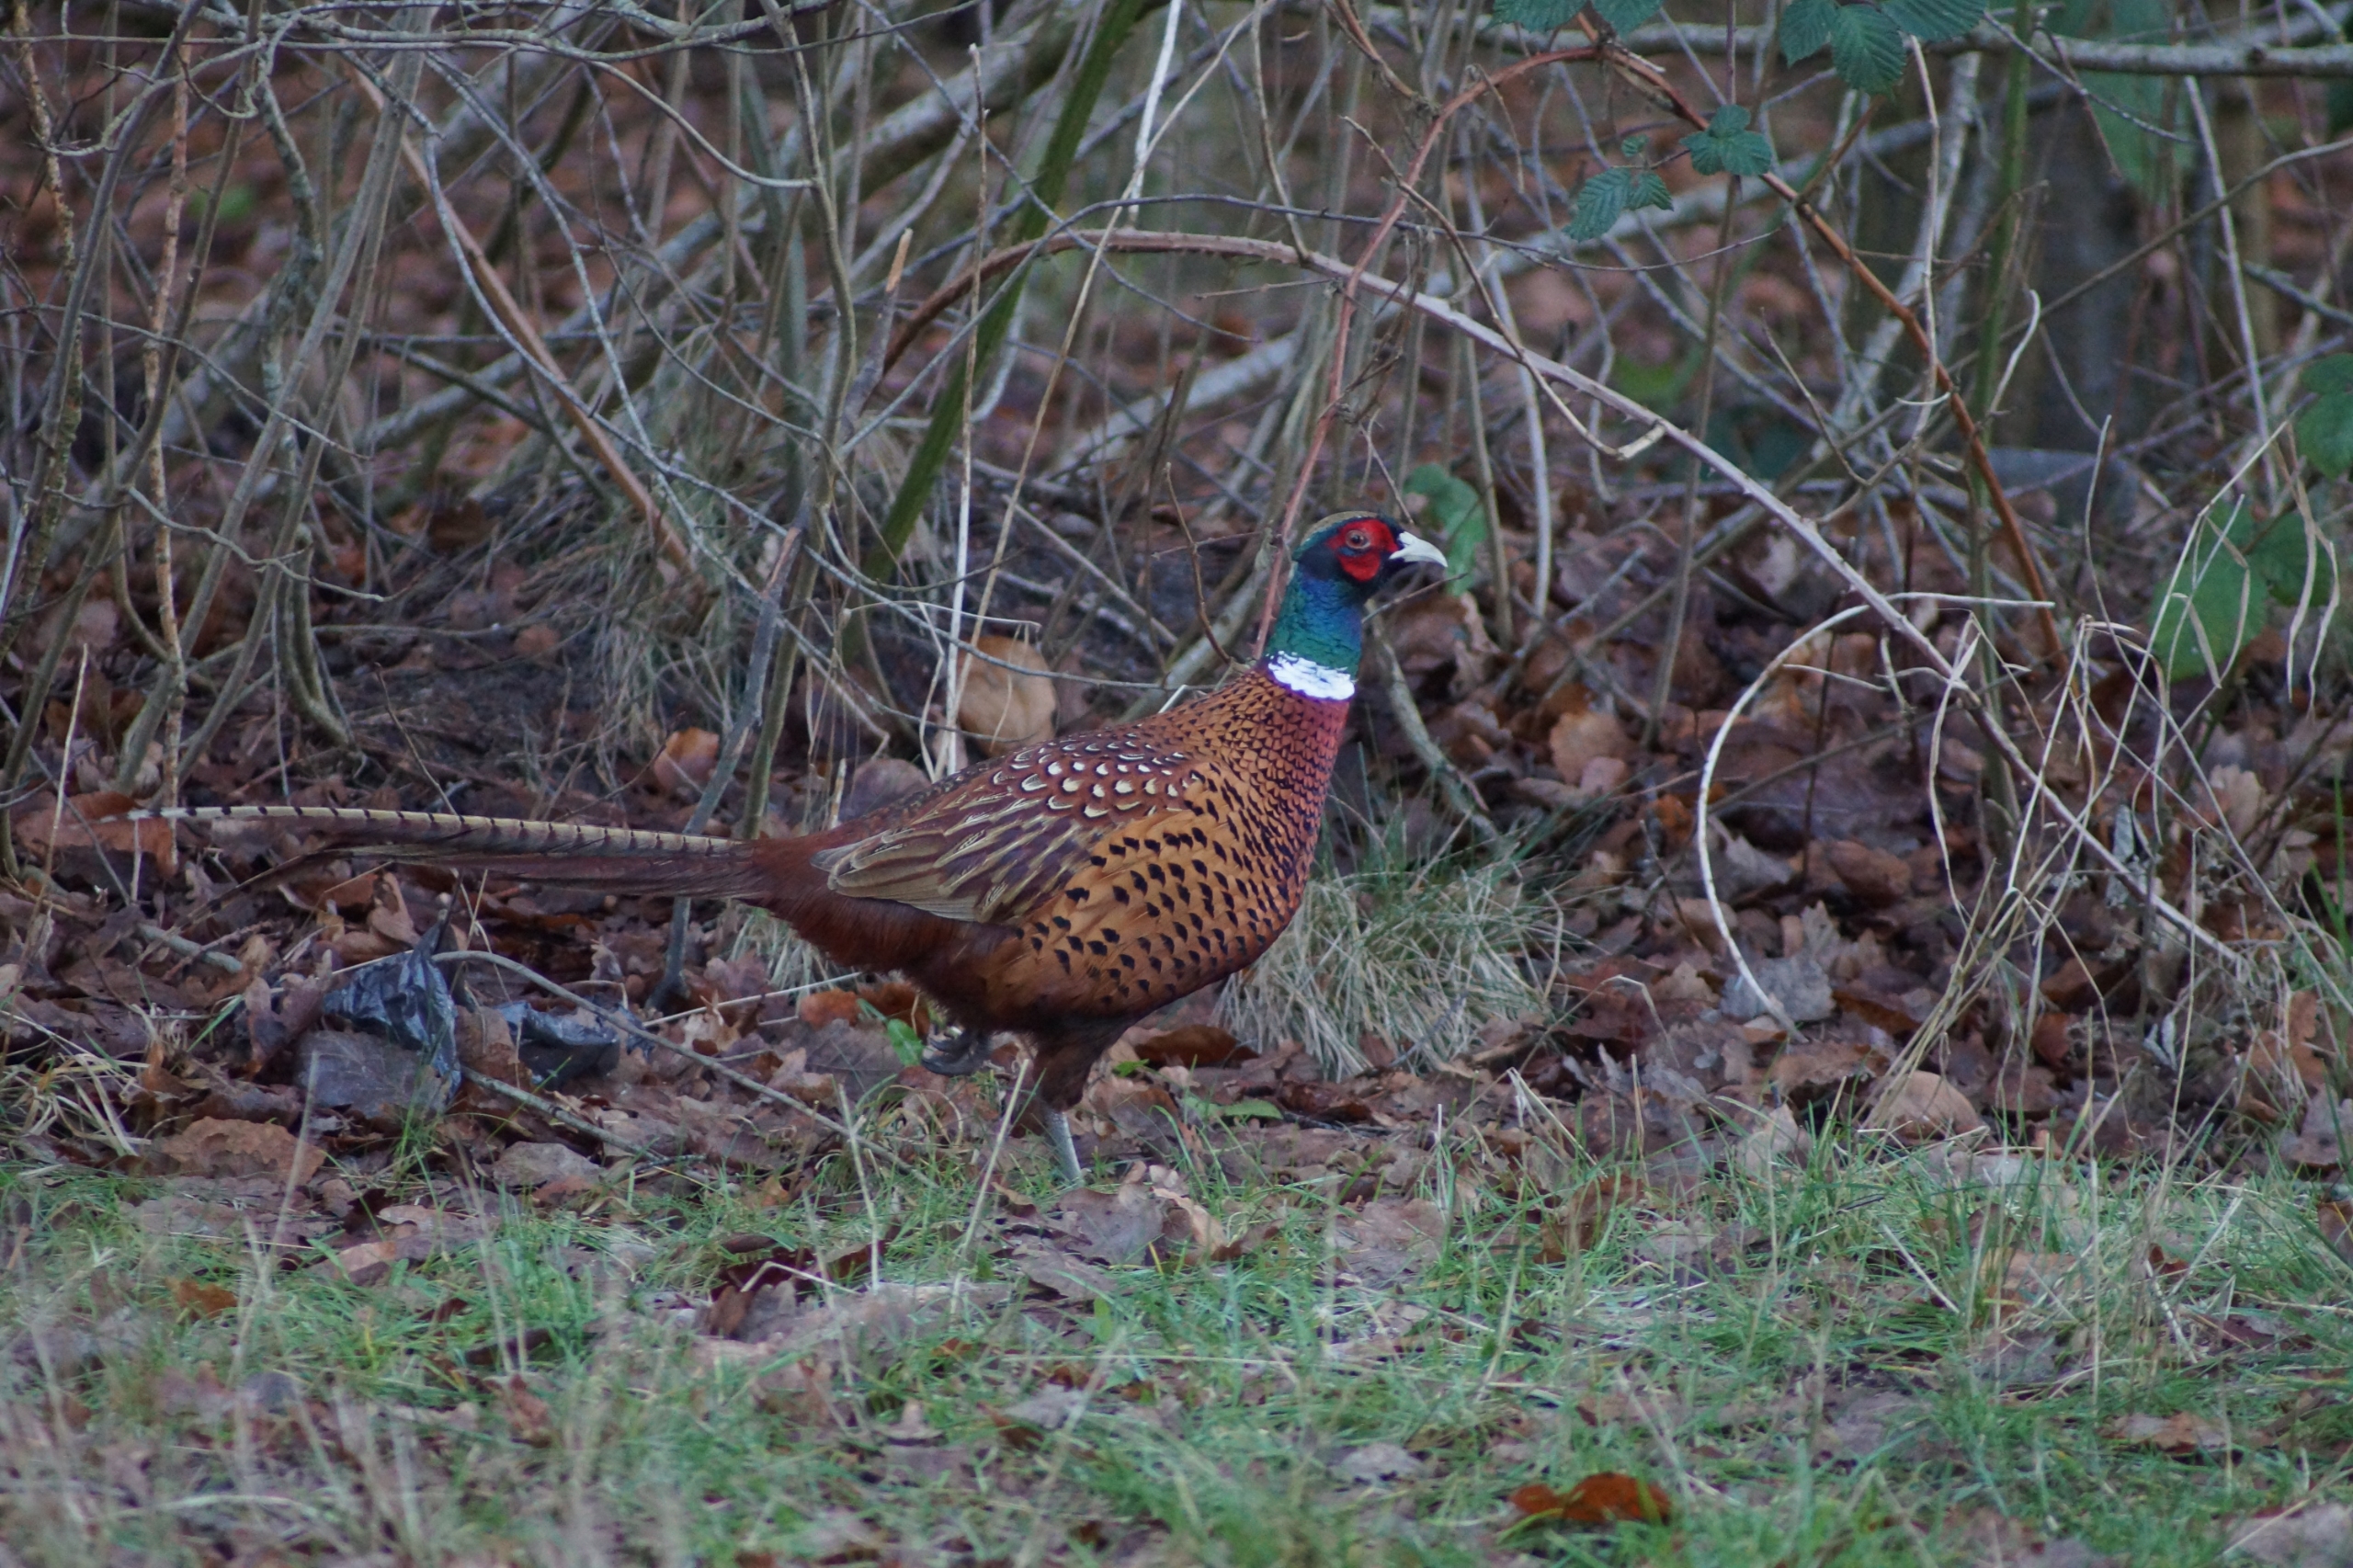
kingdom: Animalia
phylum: Chordata
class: Aves
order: Galliformes
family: Phasianidae
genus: Phasianus
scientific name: Phasianus colchicus
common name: Fasan
